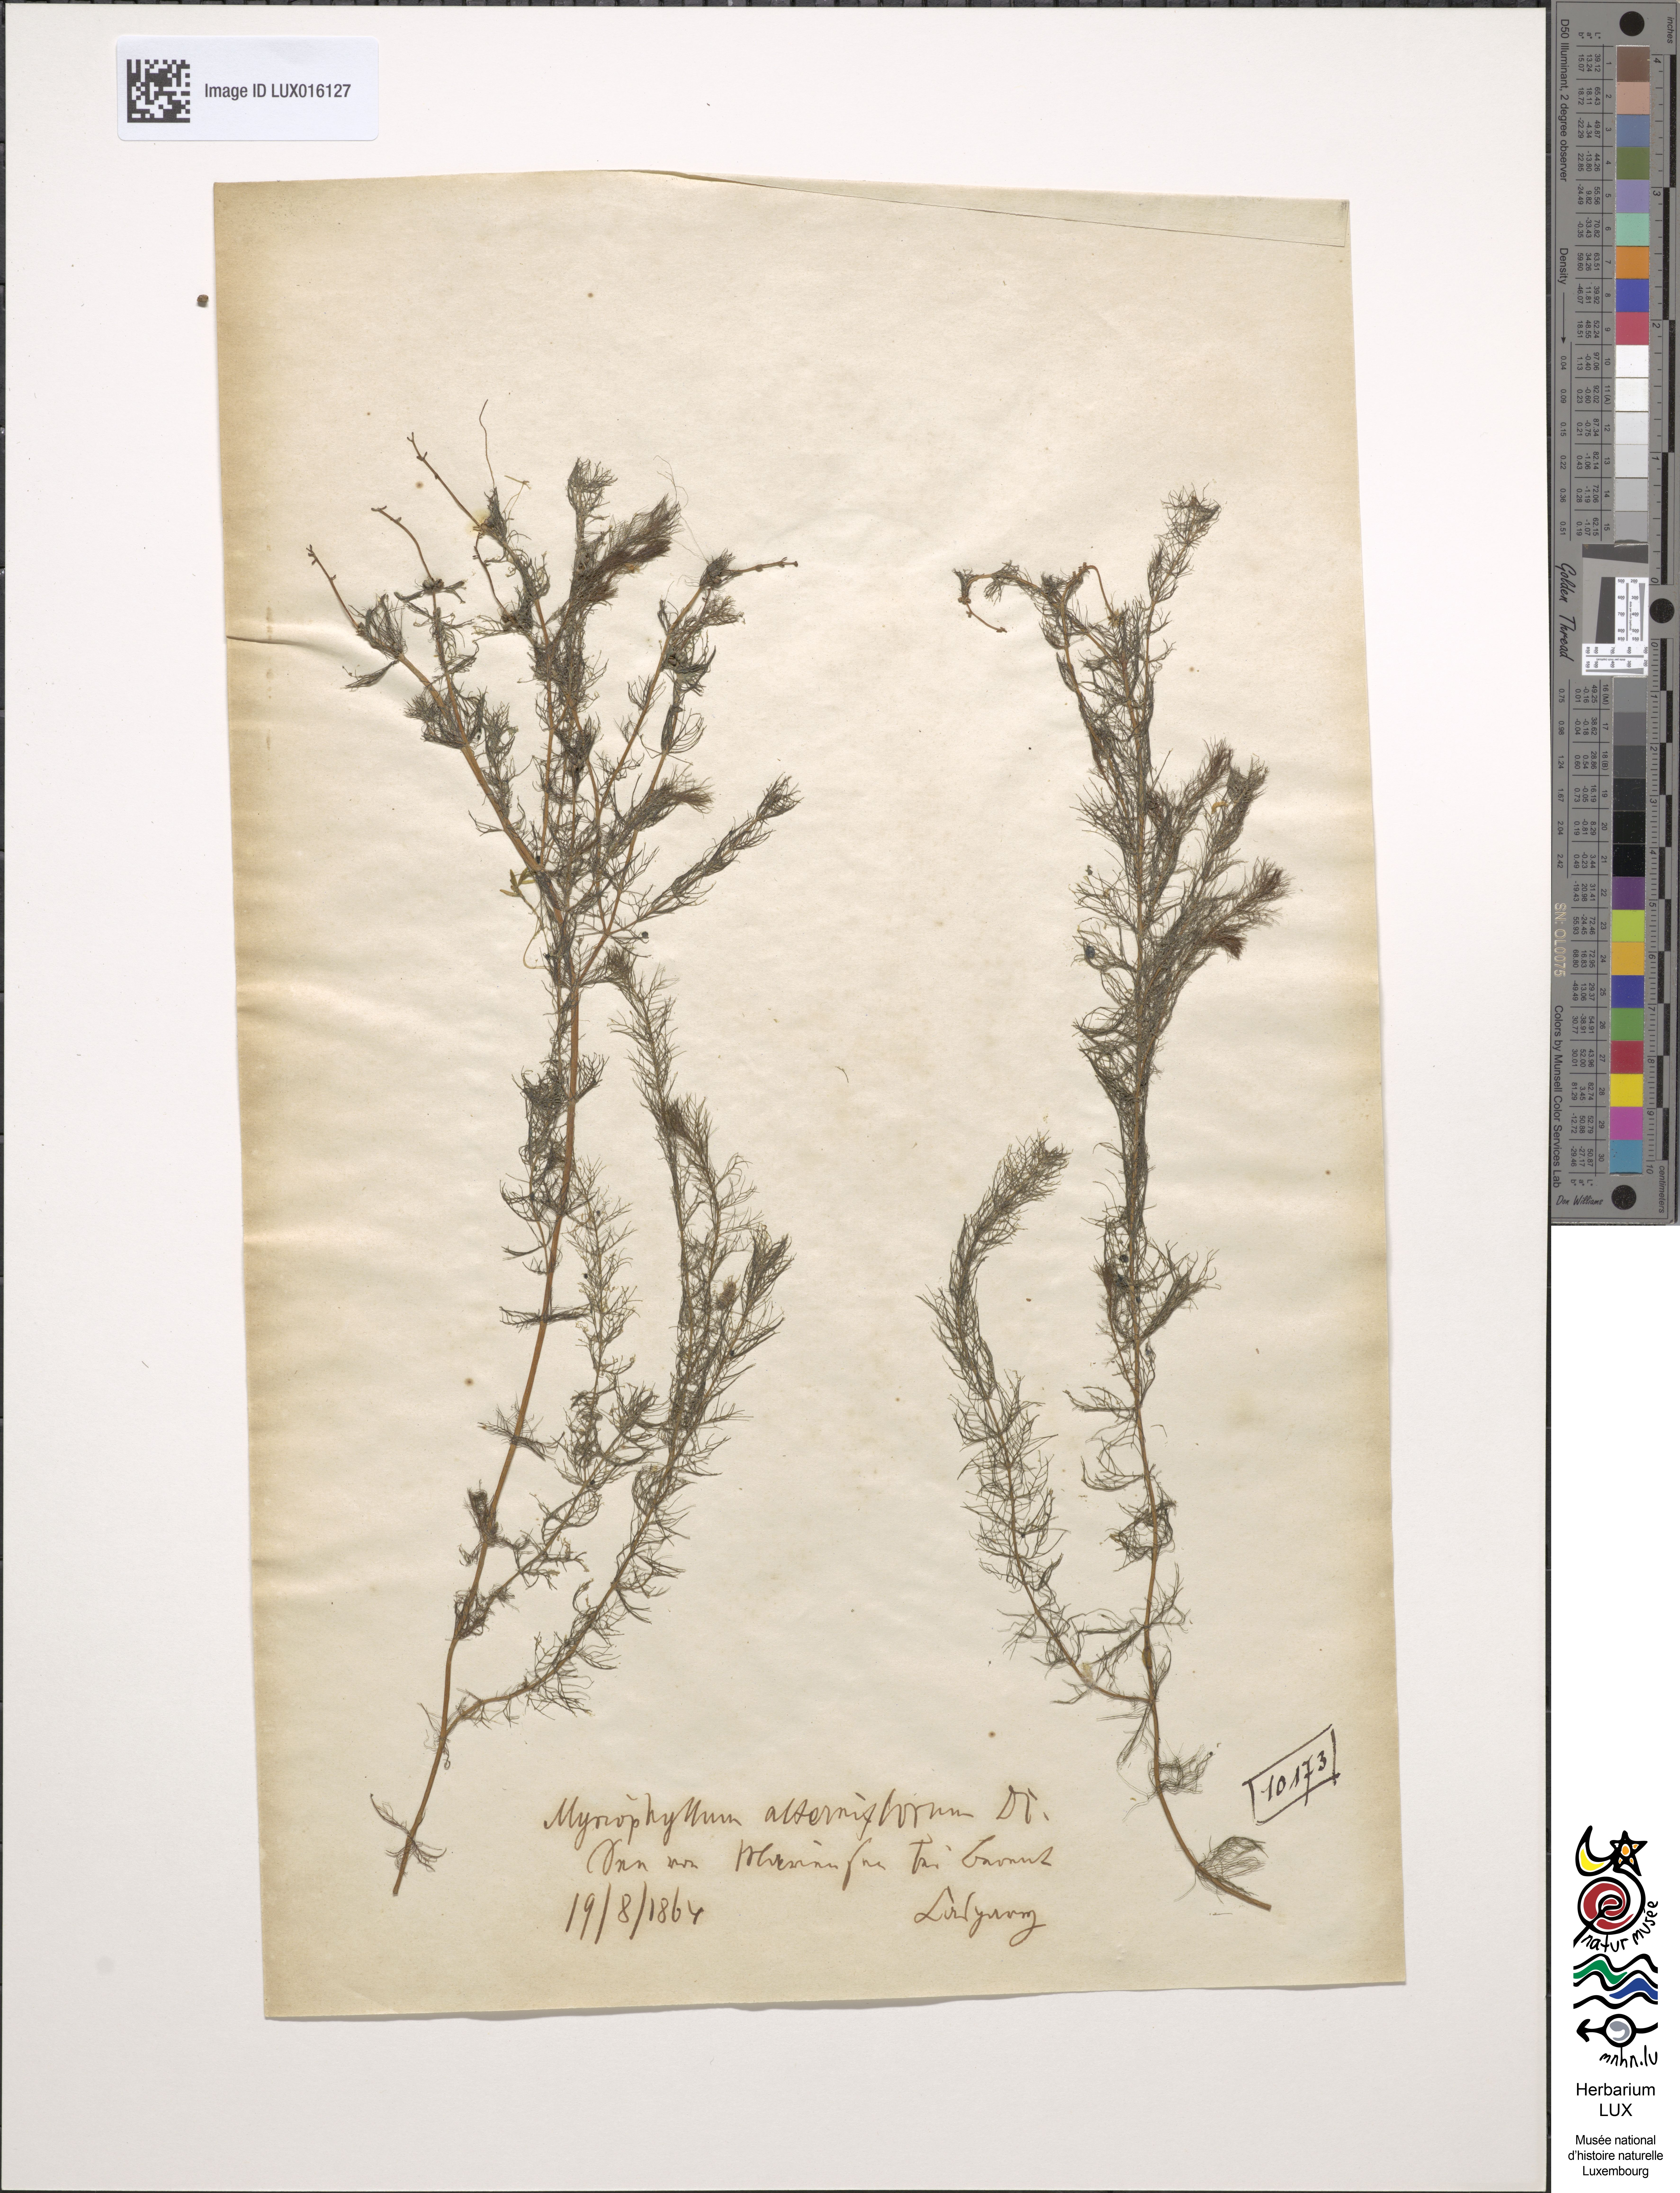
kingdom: Plantae
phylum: Tracheophyta
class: Magnoliopsida
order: Saxifragales
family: Haloragaceae
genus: Myriophyllum
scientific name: Myriophyllum alterniflorum
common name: Alternate water-milfoil
